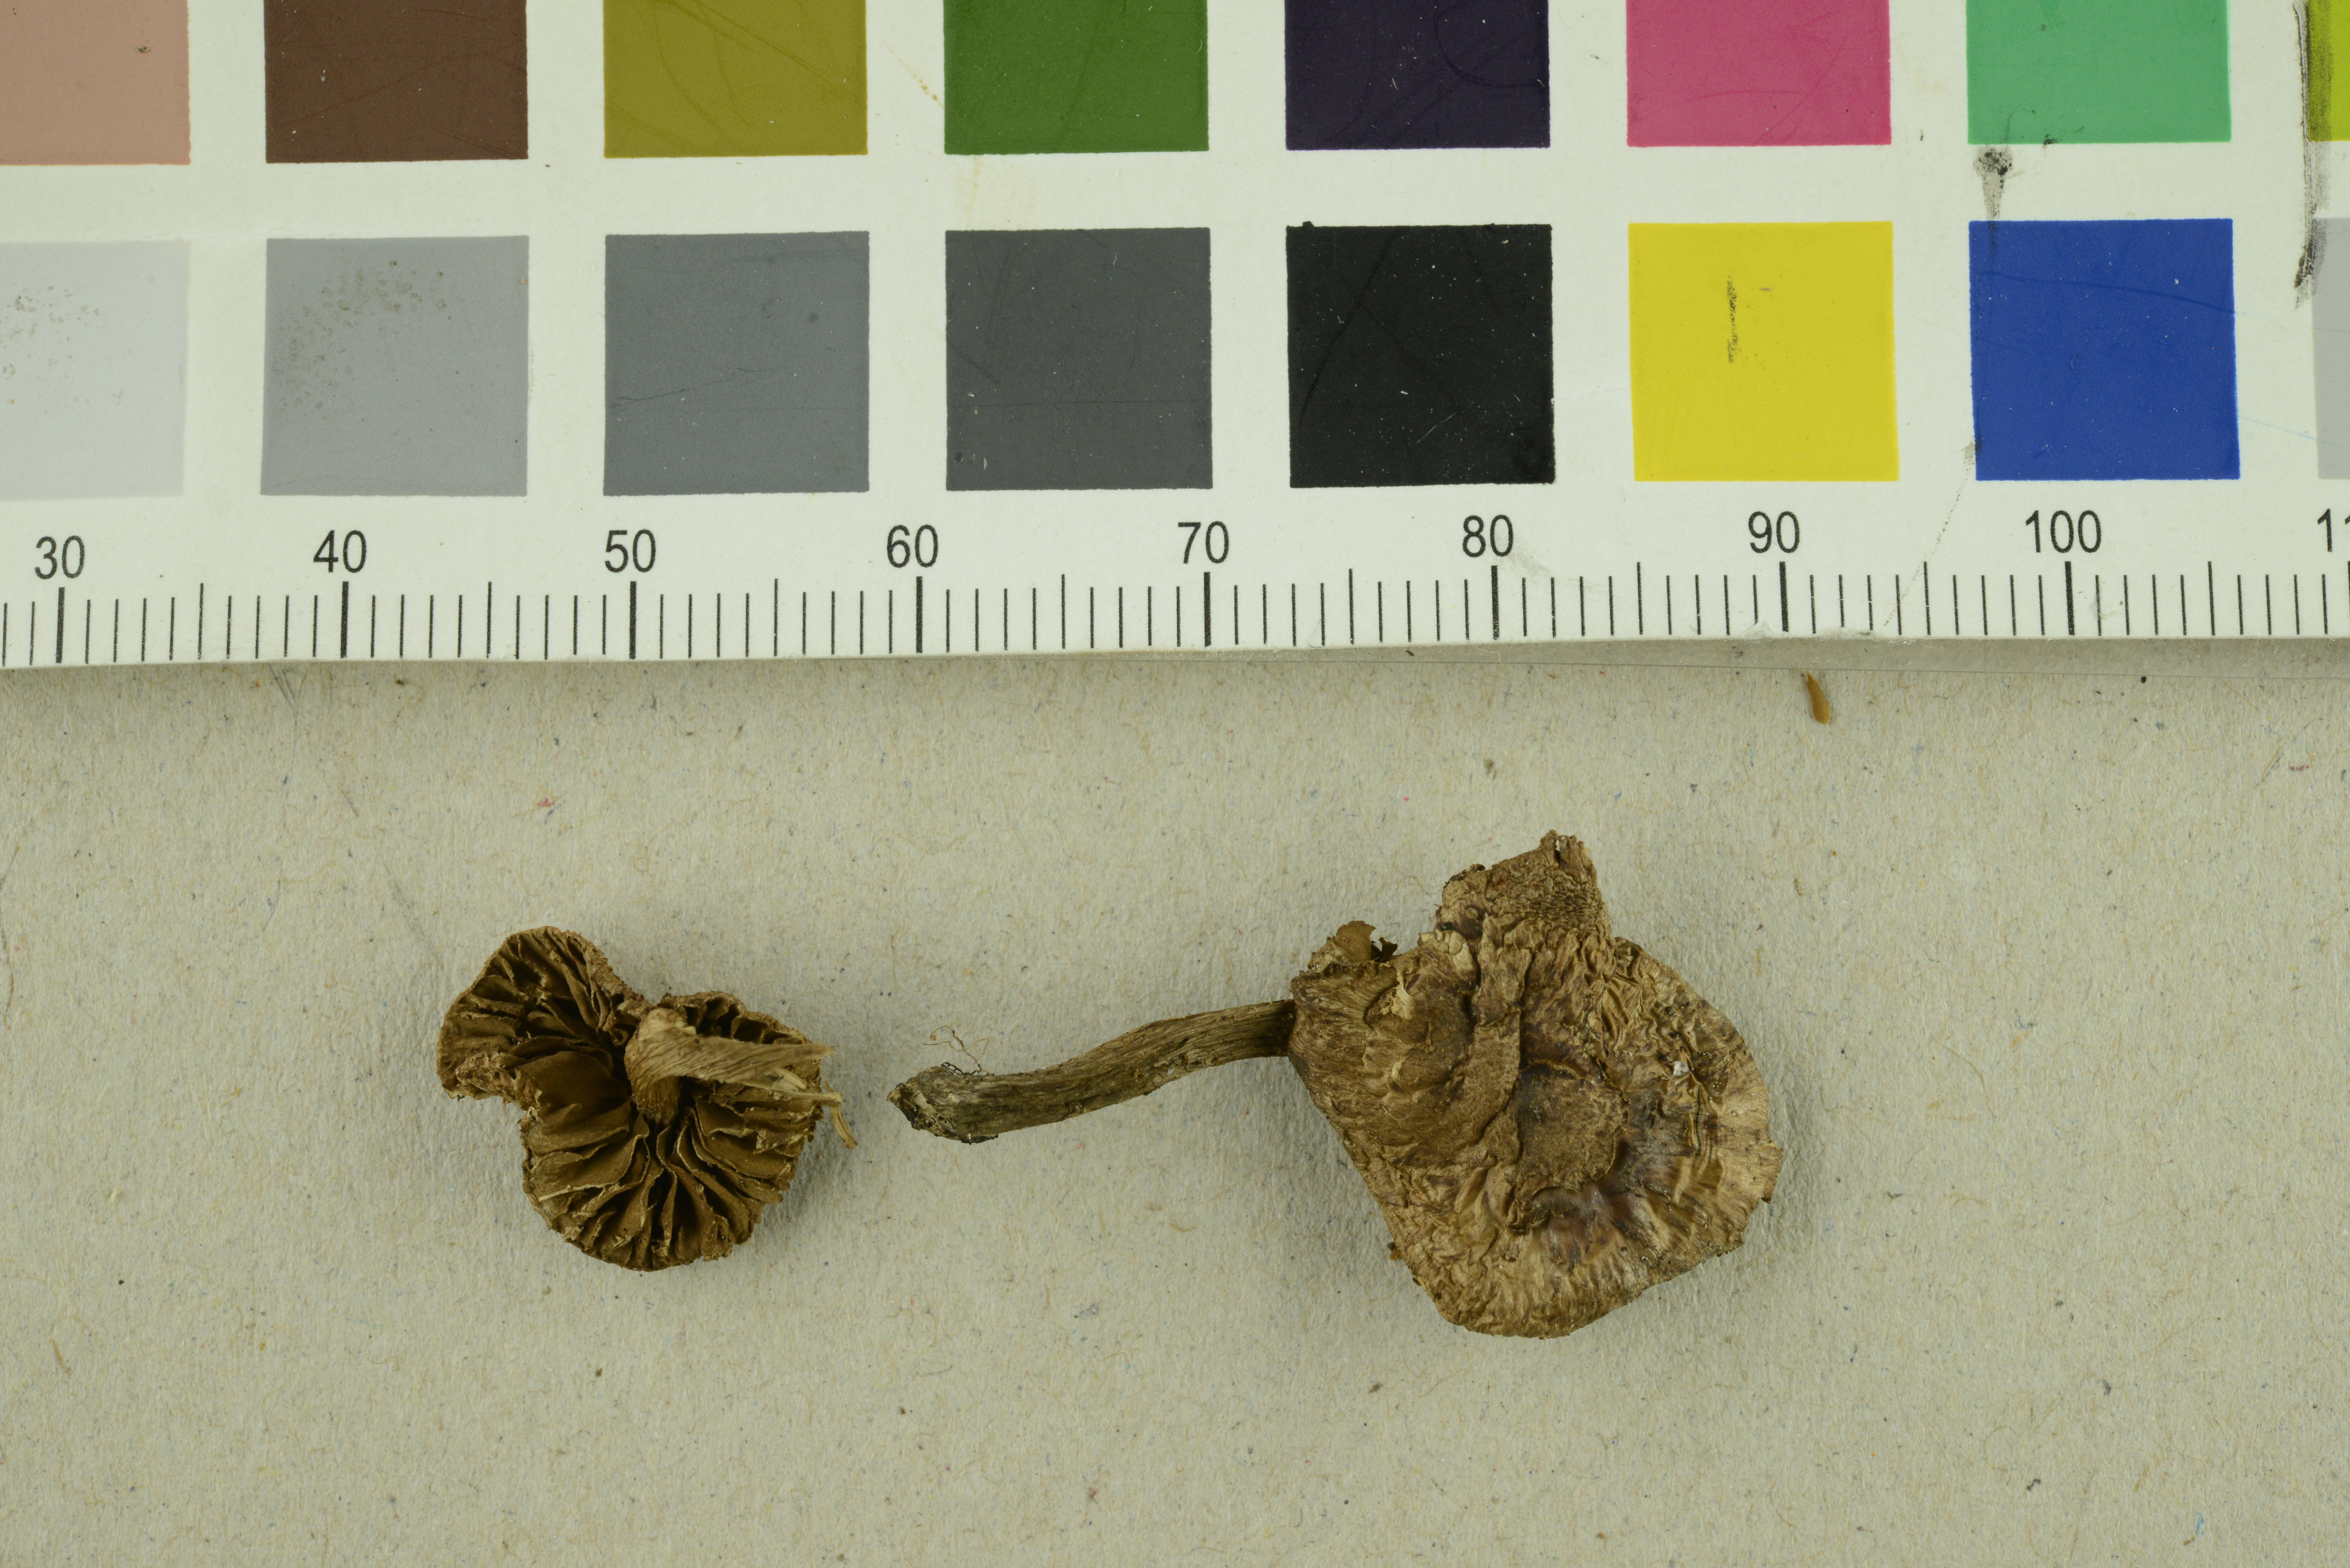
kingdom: Fungi
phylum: Basidiomycota
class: Agaricomycetes
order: Agaricales
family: Inocybaceae
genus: Inosperma
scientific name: Inosperma subhirsutum
